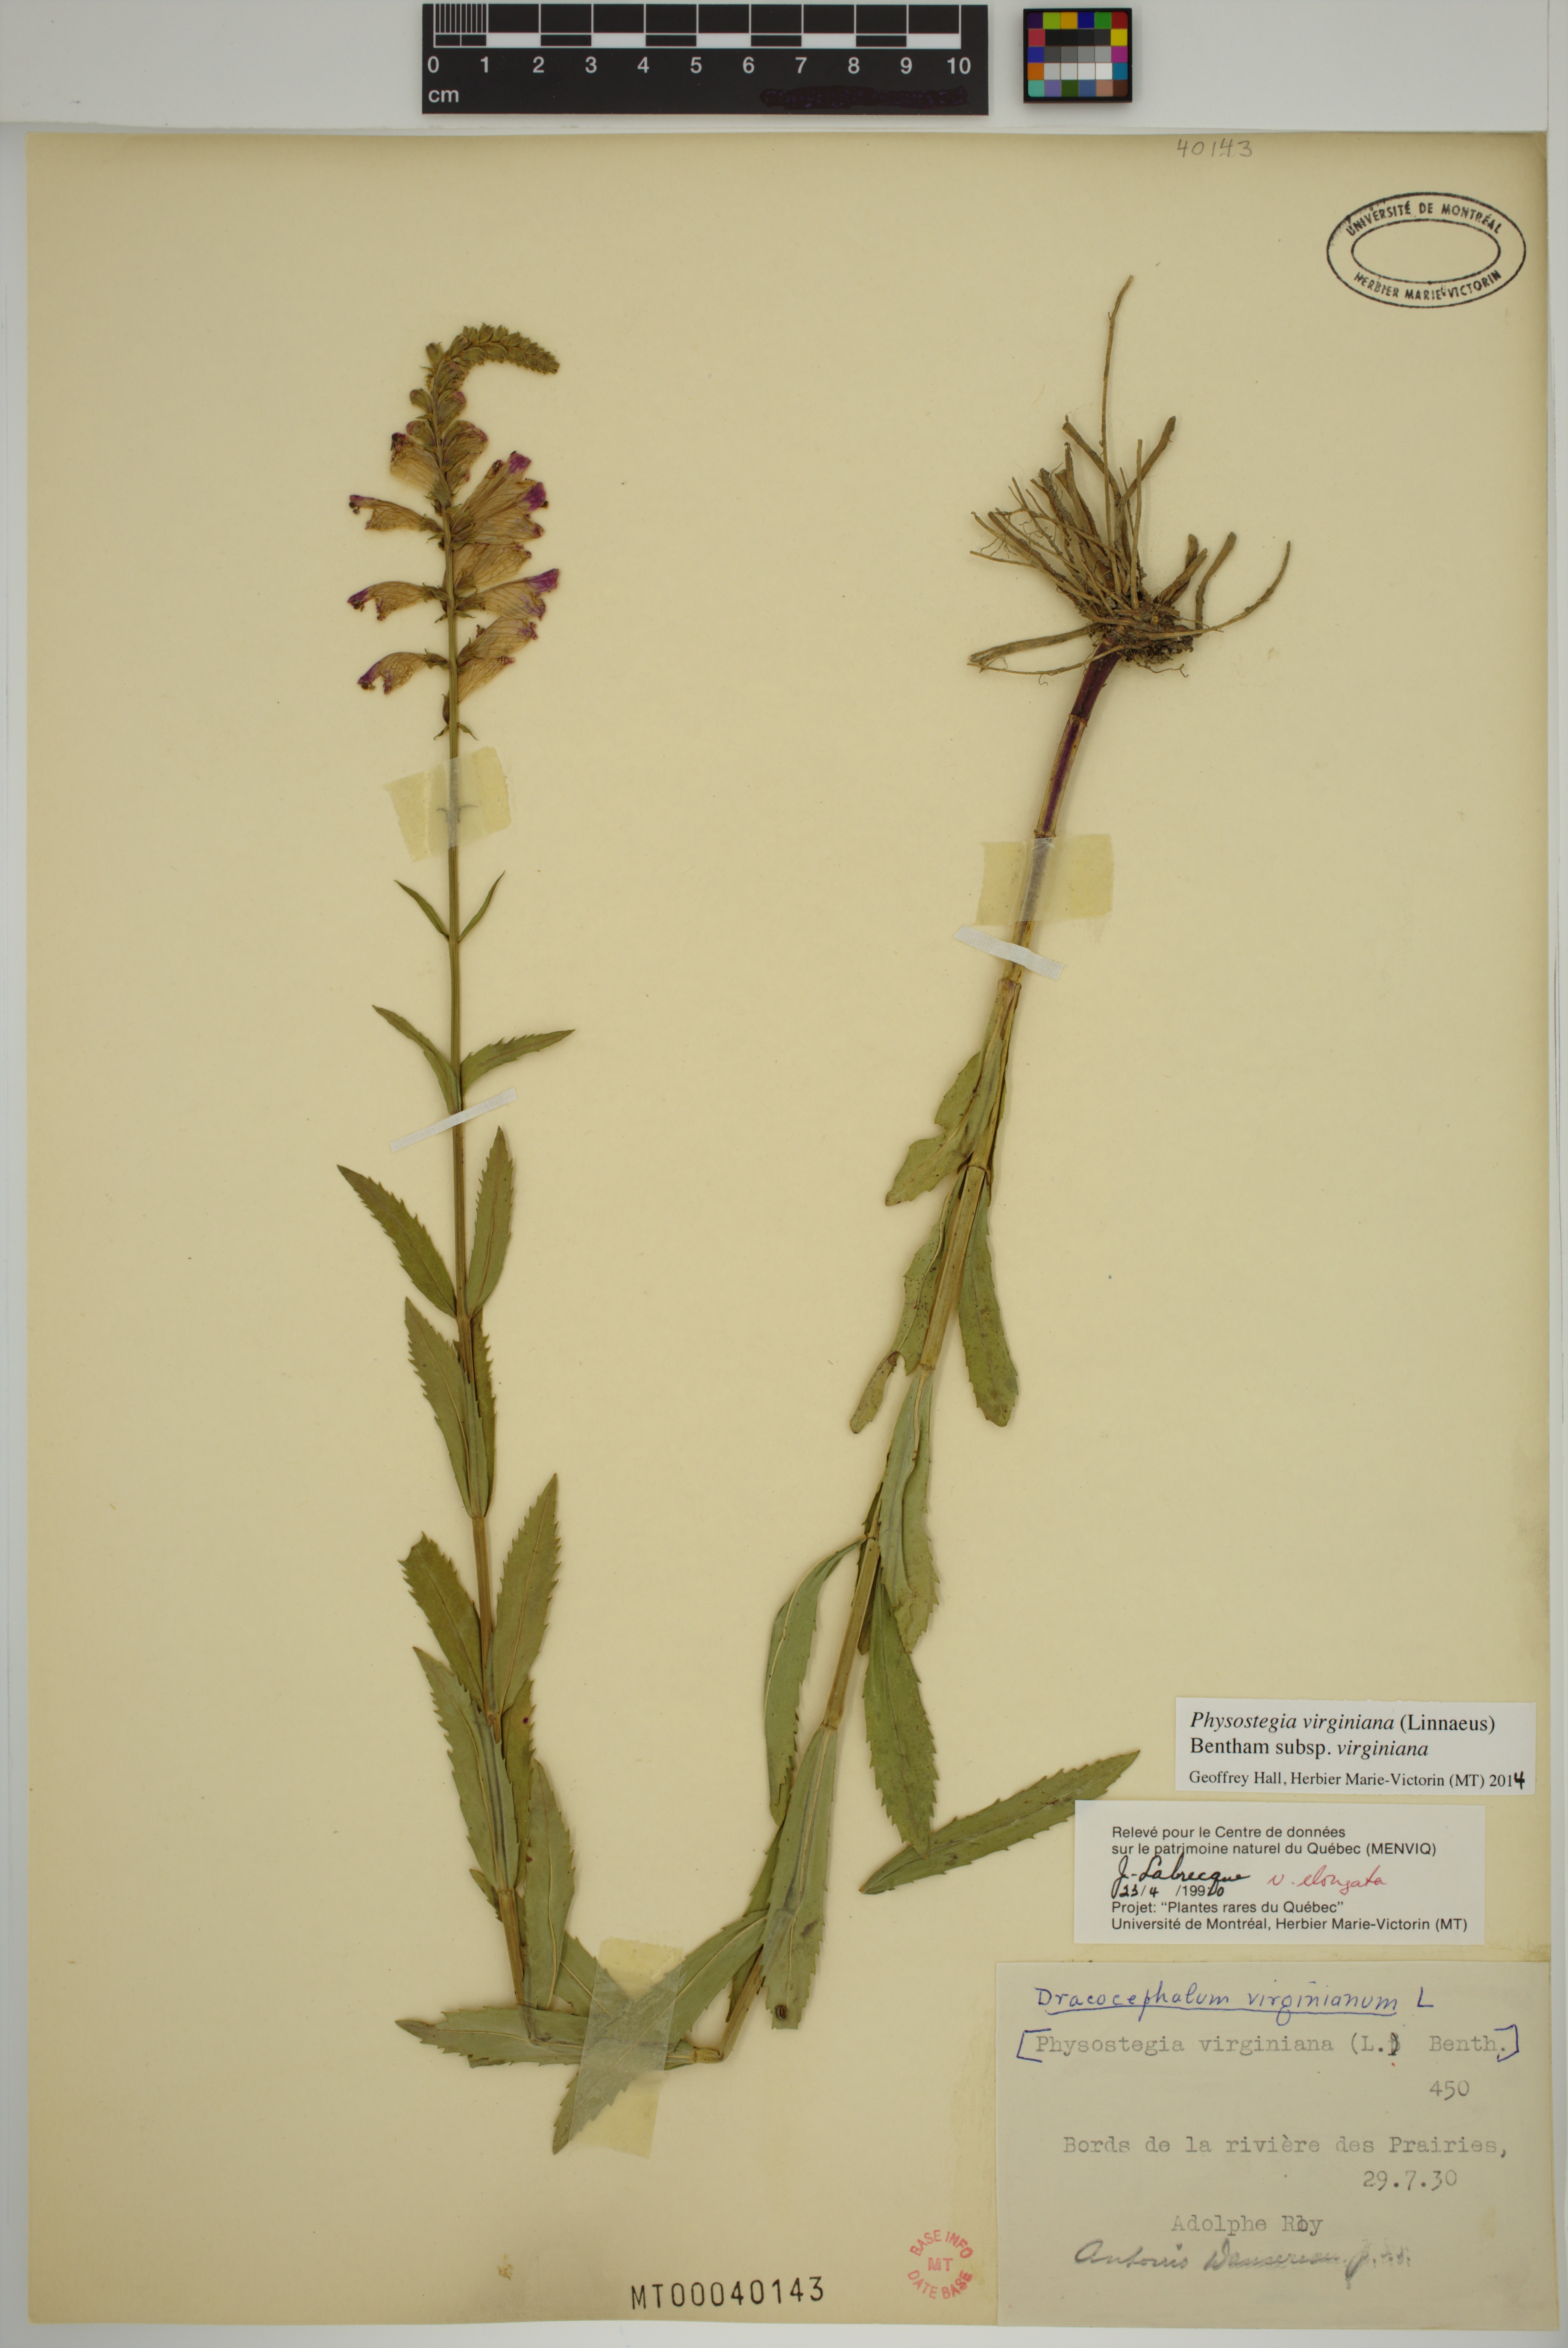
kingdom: Plantae
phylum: Tracheophyta
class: Magnoliopsida
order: Lamiales
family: Lamiaceae
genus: Physostegia
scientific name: Physostegia virginiana
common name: Obedient-plant
